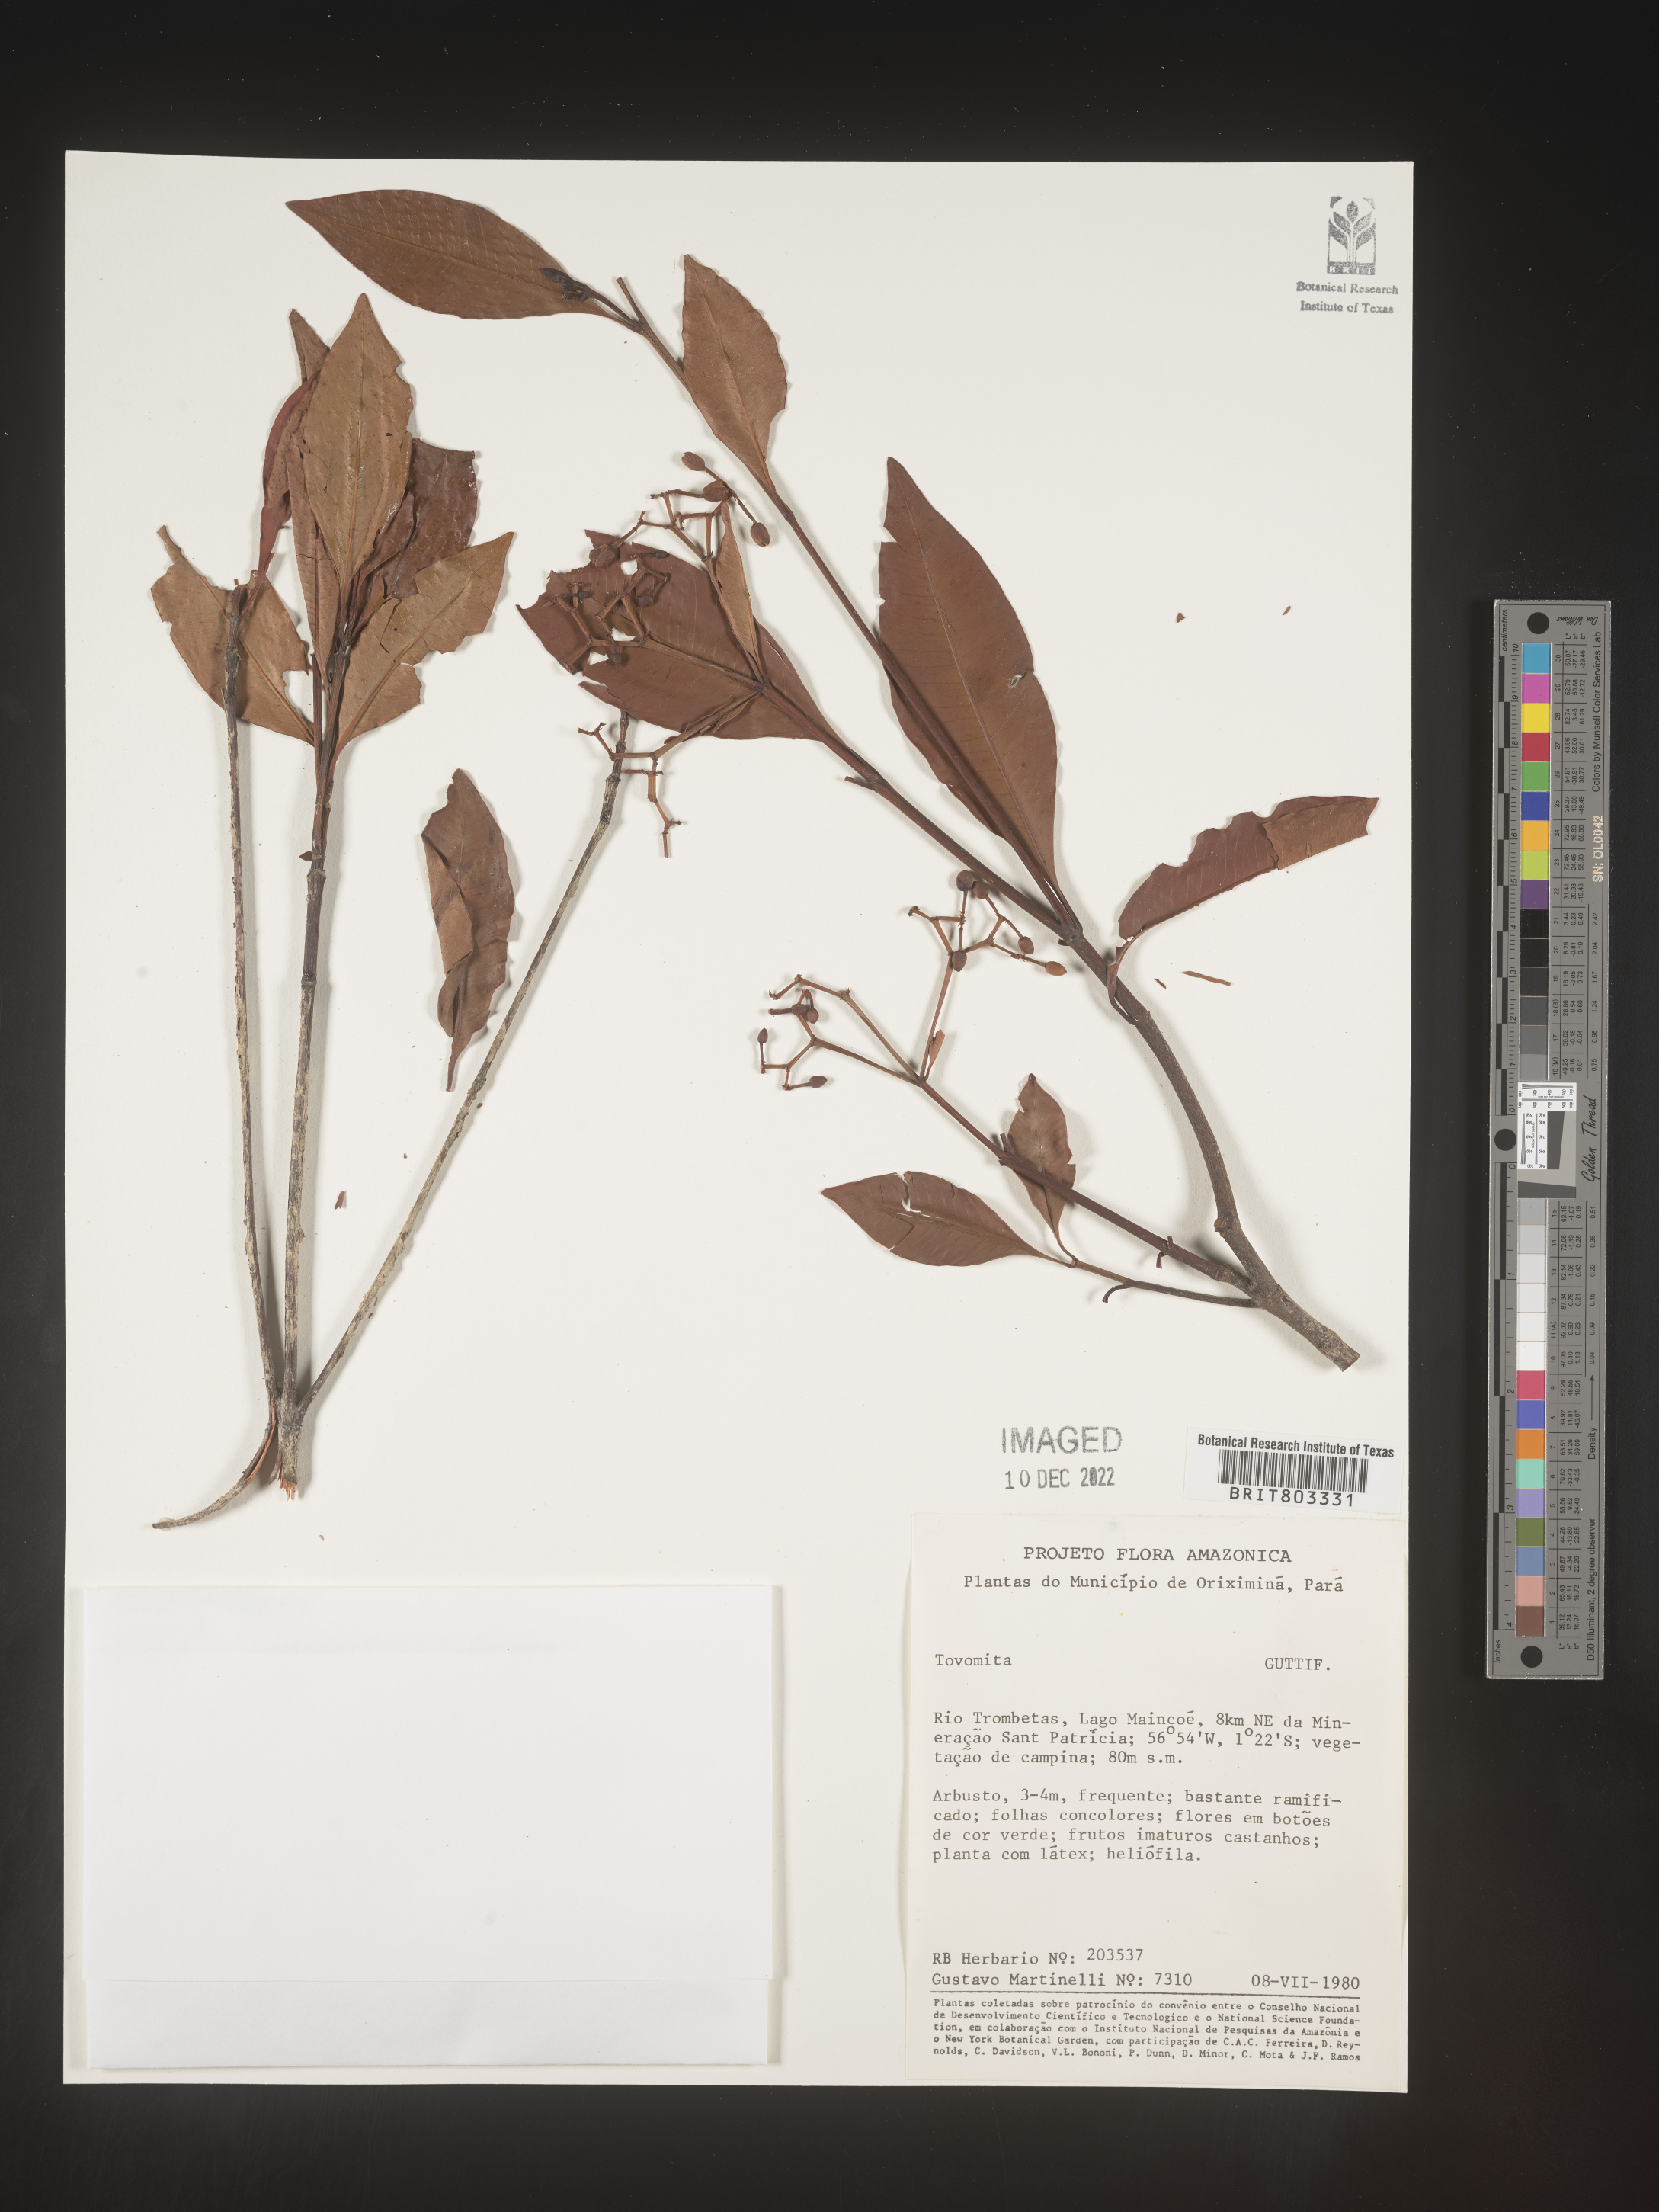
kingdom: Plantae
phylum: Tracheophyta
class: Magnoliopsida
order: Malpighiales
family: Clusiaceae
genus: Tovomita
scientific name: Tovomita
